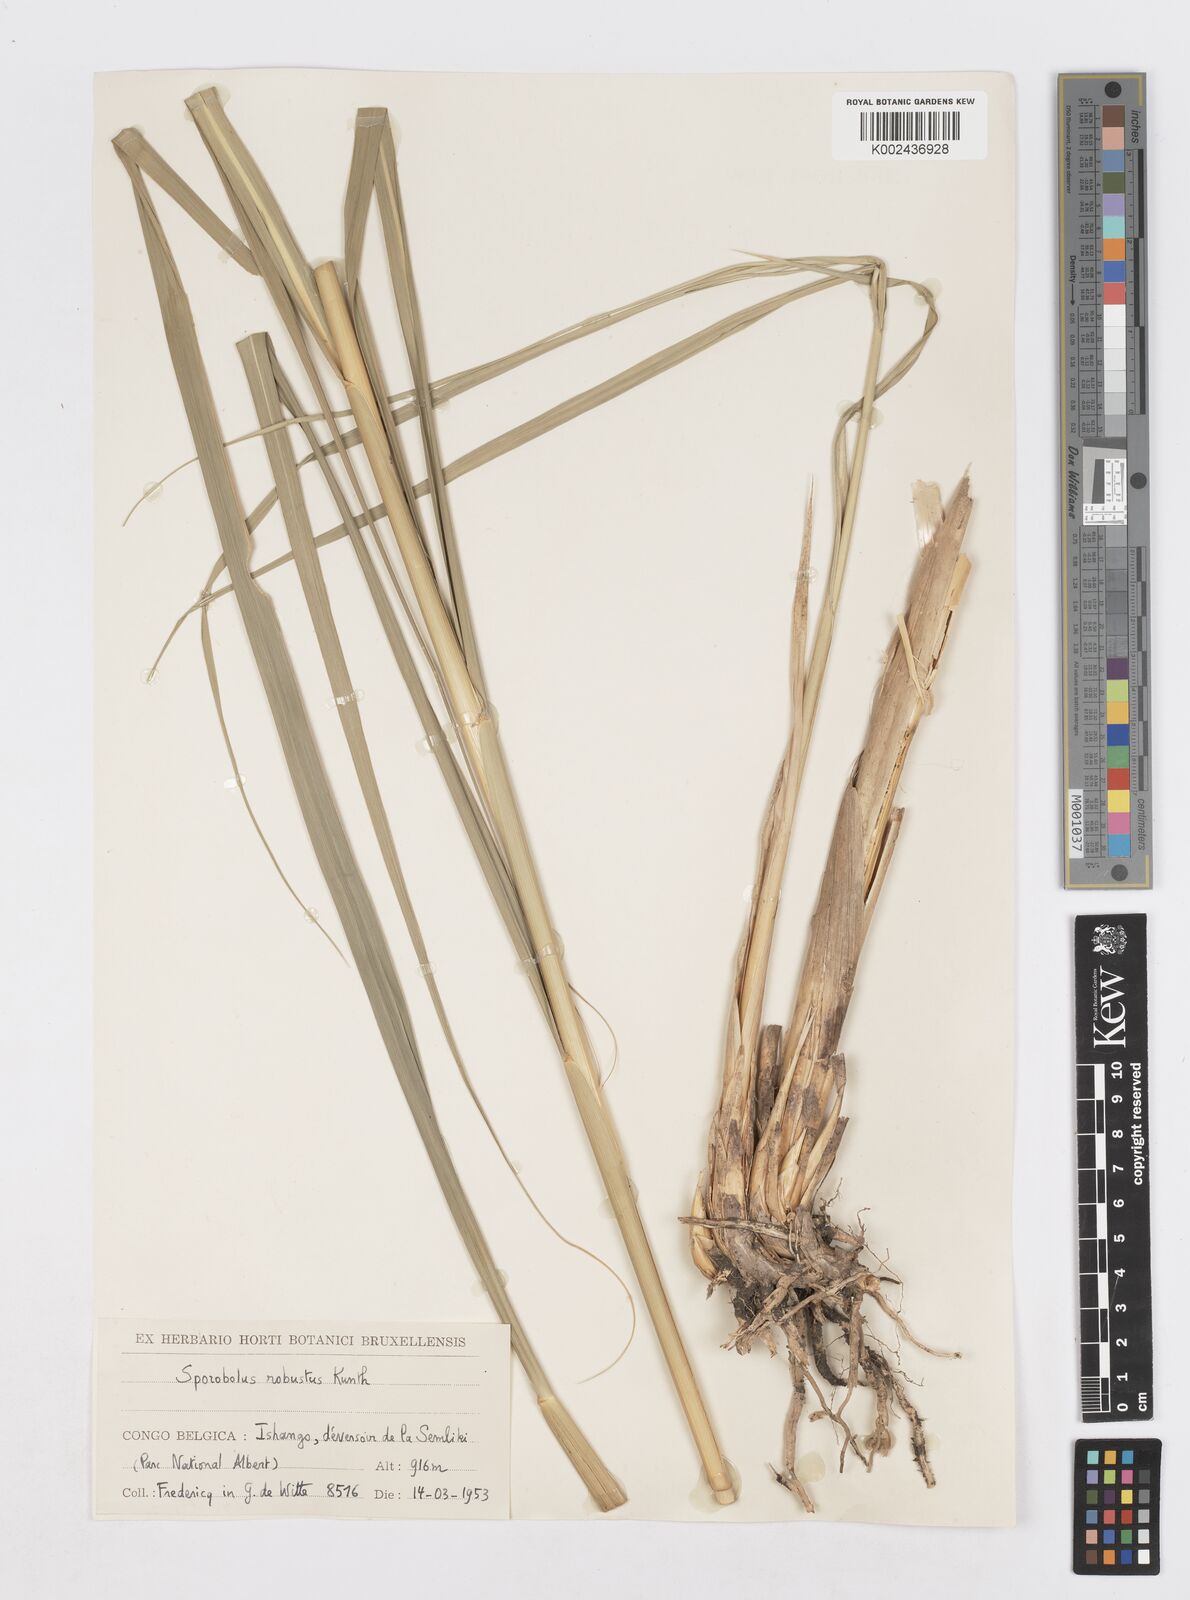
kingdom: Plantae
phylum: Tracheophyta
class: Liliopsida
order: Poales
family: Poaceae
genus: Sporobolus
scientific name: Sporobolus consimilis
